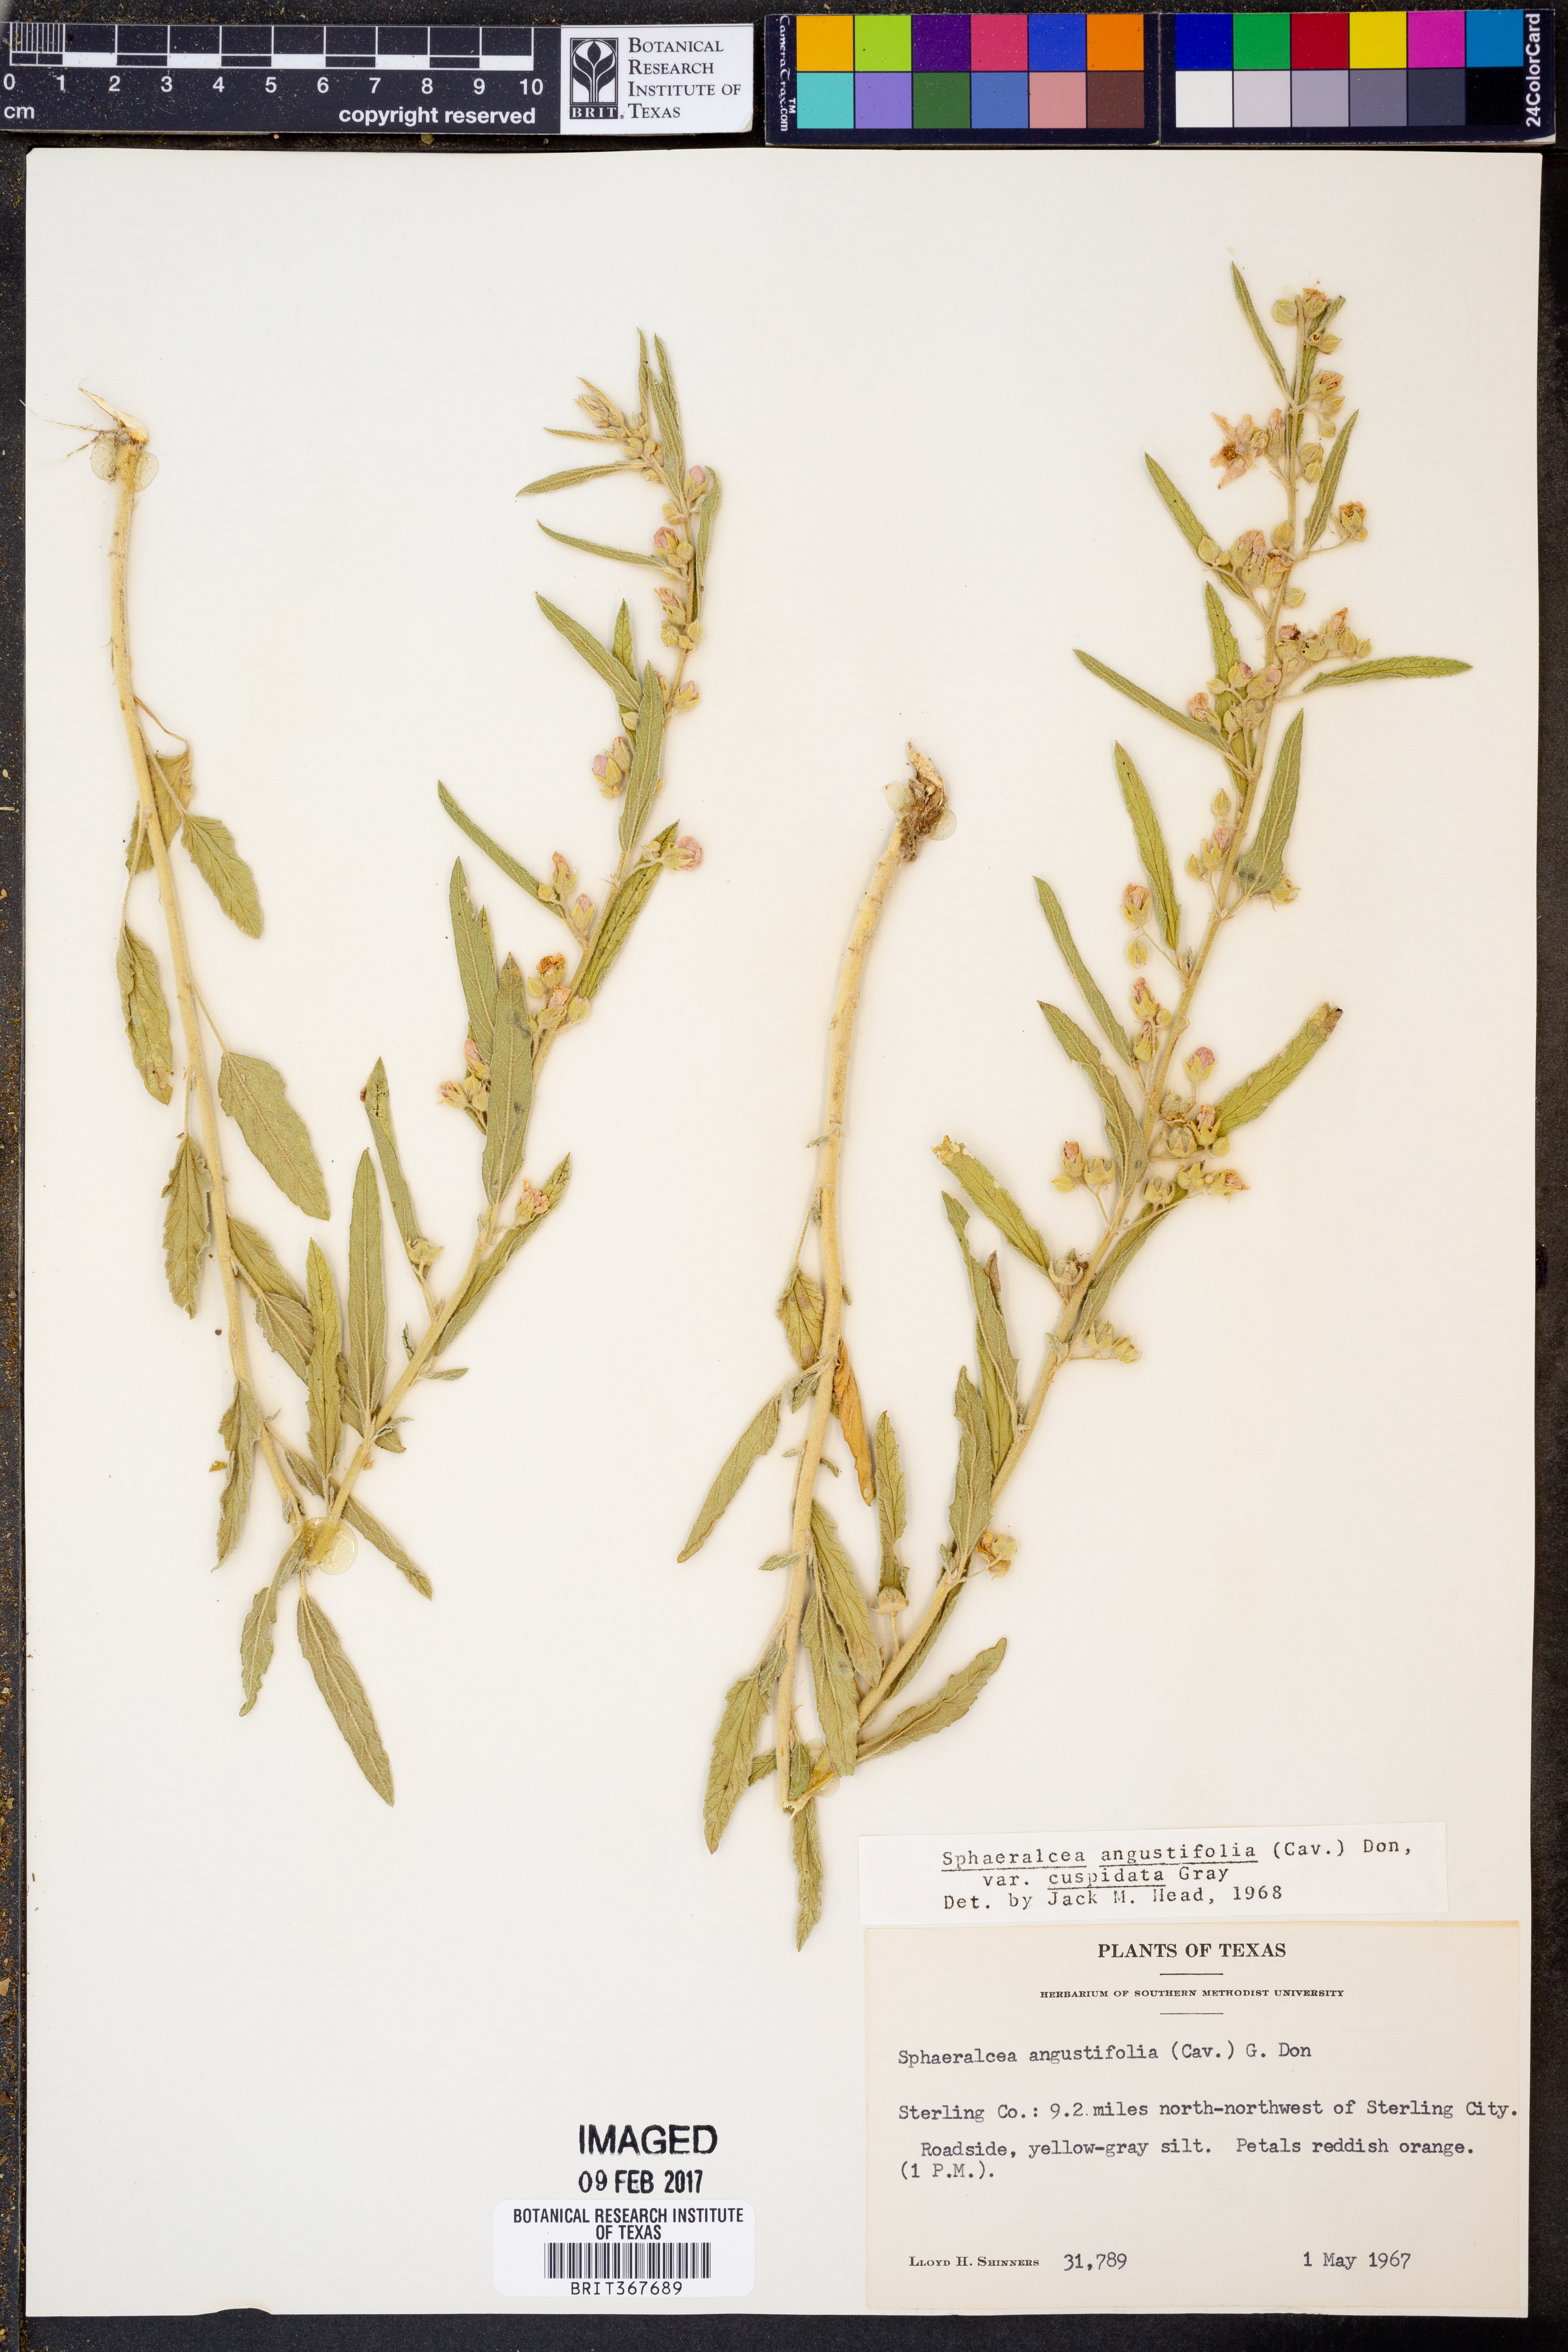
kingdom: Plantae
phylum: Tracheophyta
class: Magnoliopsida
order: Malvales
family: Malvaceae
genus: Sphaeralcea
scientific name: Sphaeralcea angustifolia
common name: Copper globe-mallow
